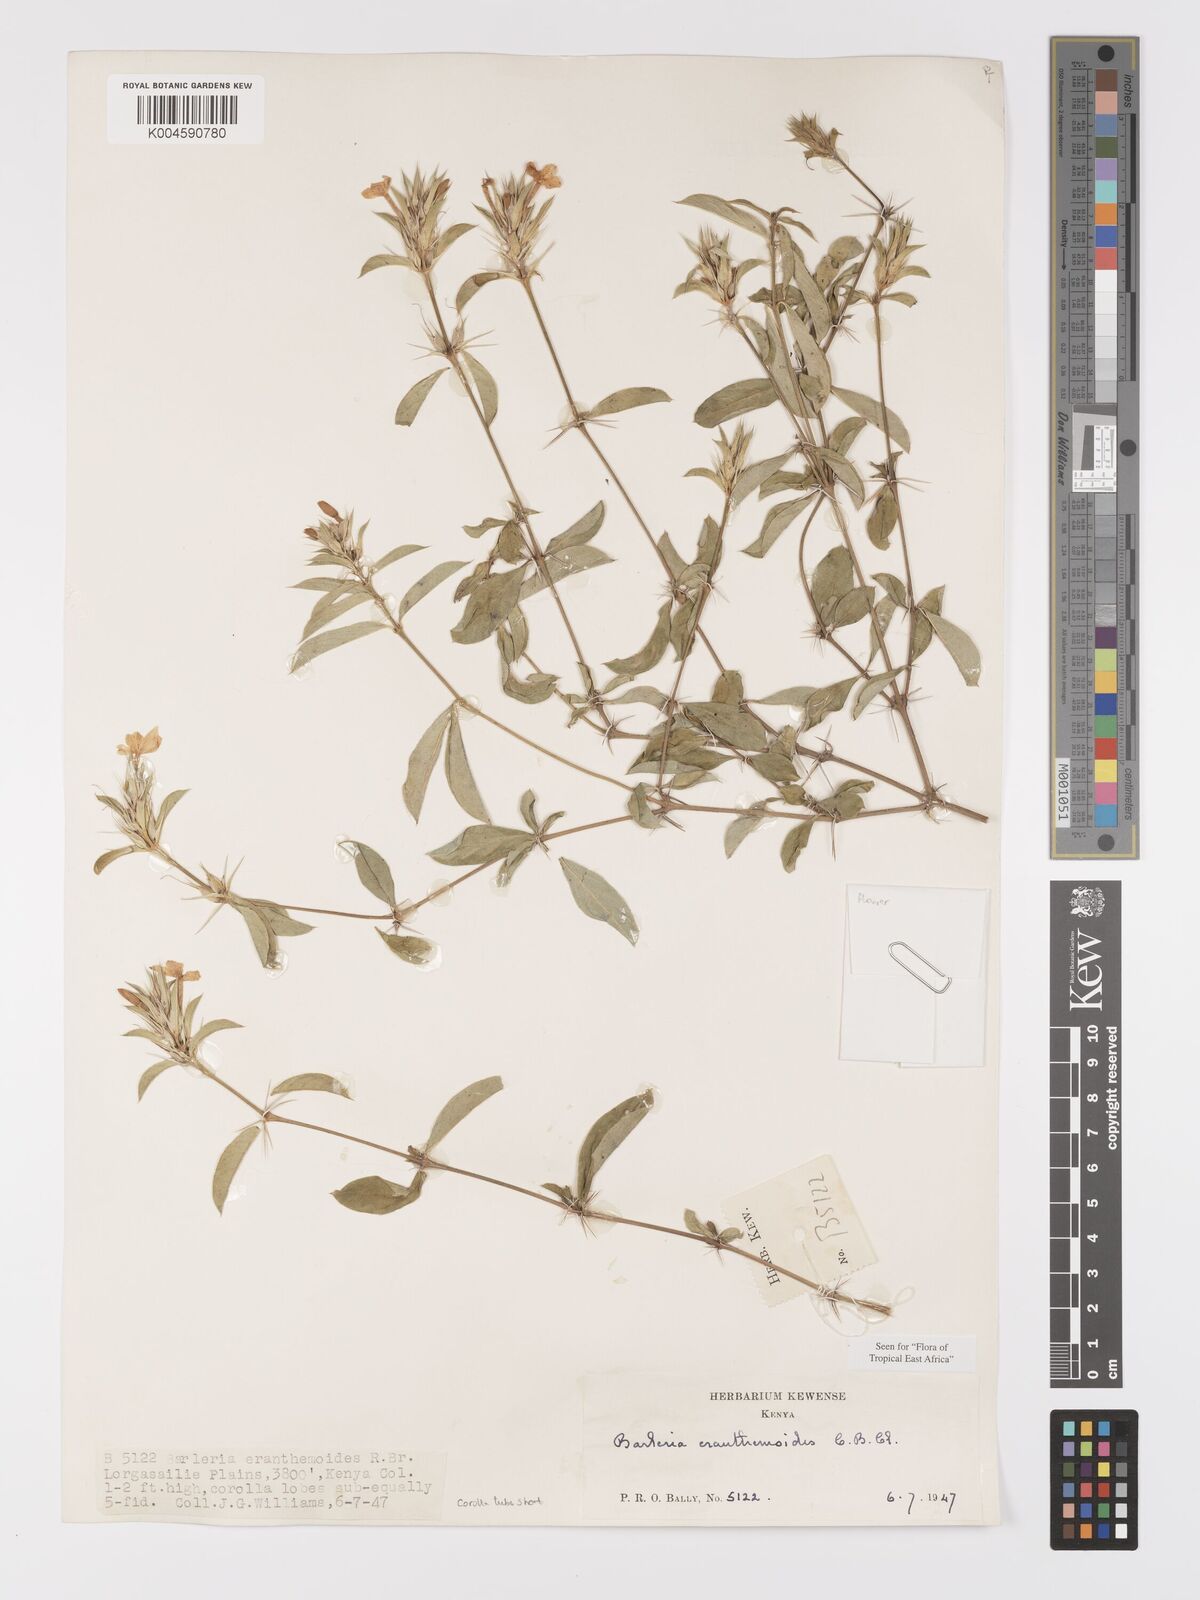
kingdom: Plantae
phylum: Tracheophyta
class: Magnoliopsida
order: Lamiales
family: Acanthaceae
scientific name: Acanthaceae
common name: Acanthaceae
